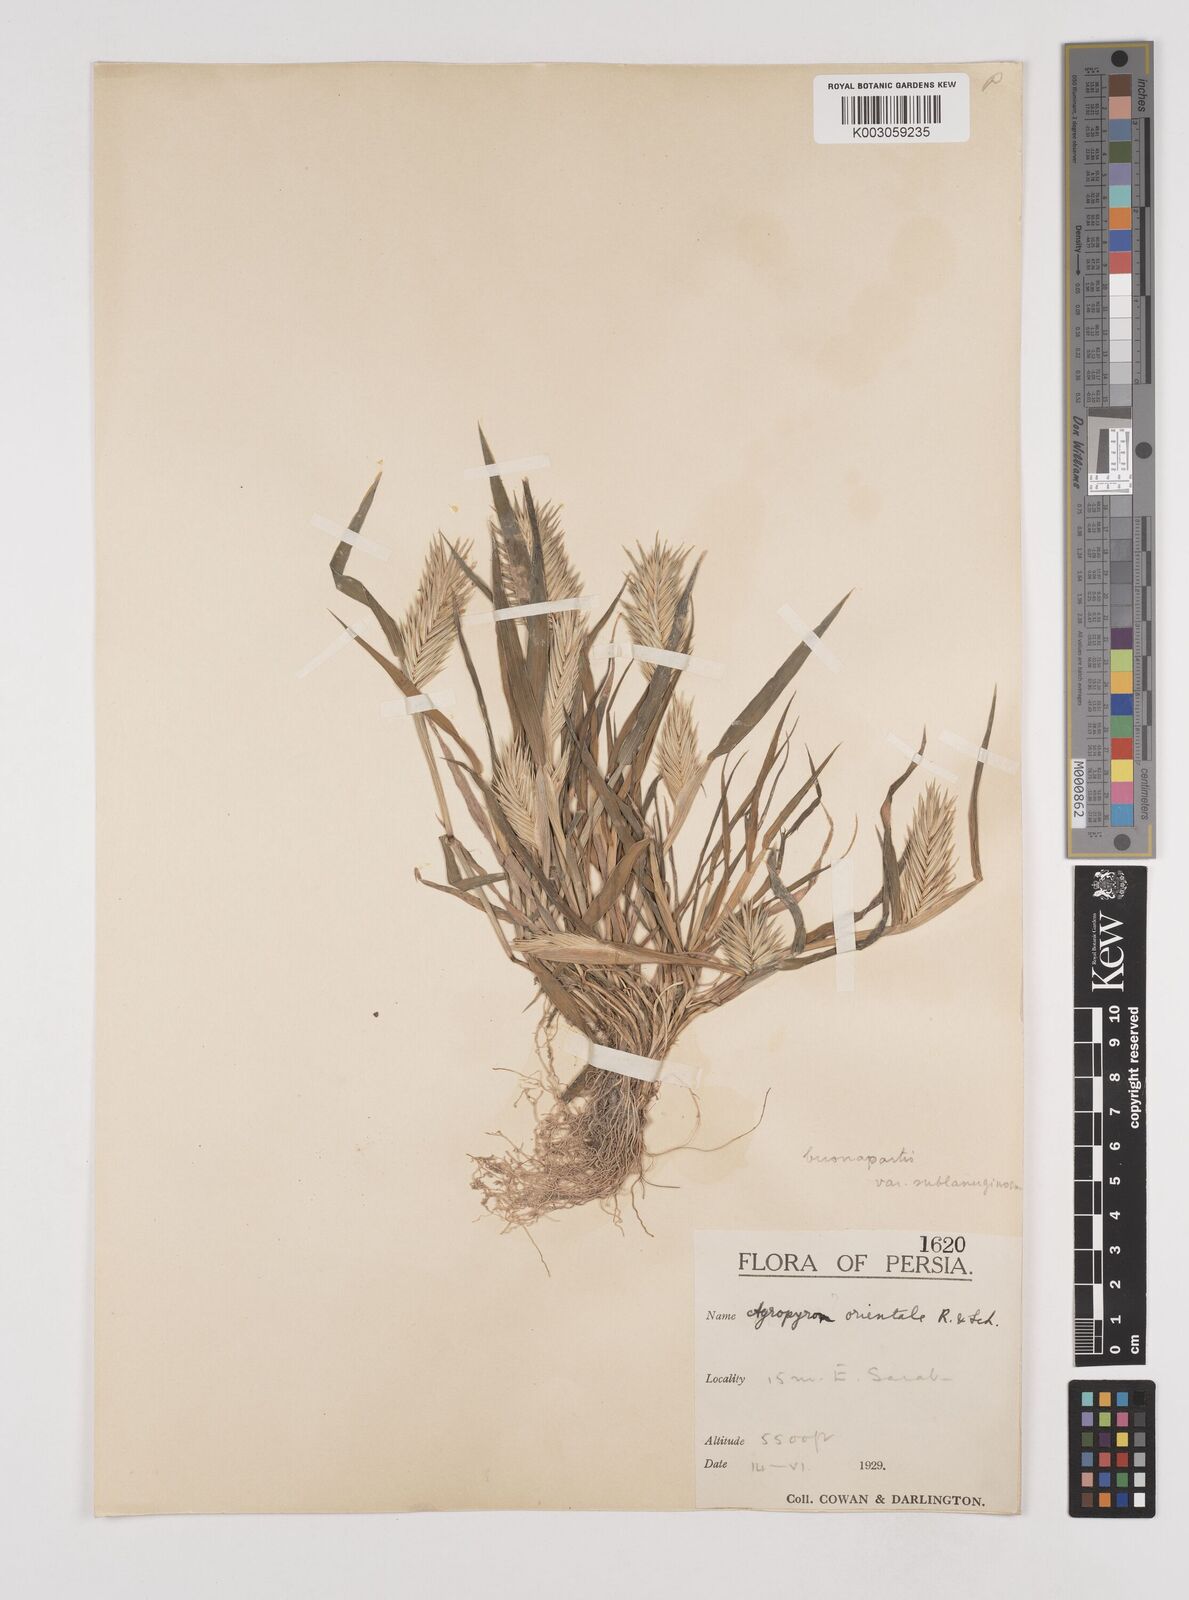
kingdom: Plantae
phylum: Tracheophyta
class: Liliopsida
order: Poales
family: Poaceae
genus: Eremopyrum
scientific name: Eremopyrum bonaepartis
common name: Tapertip false wheatgrass
